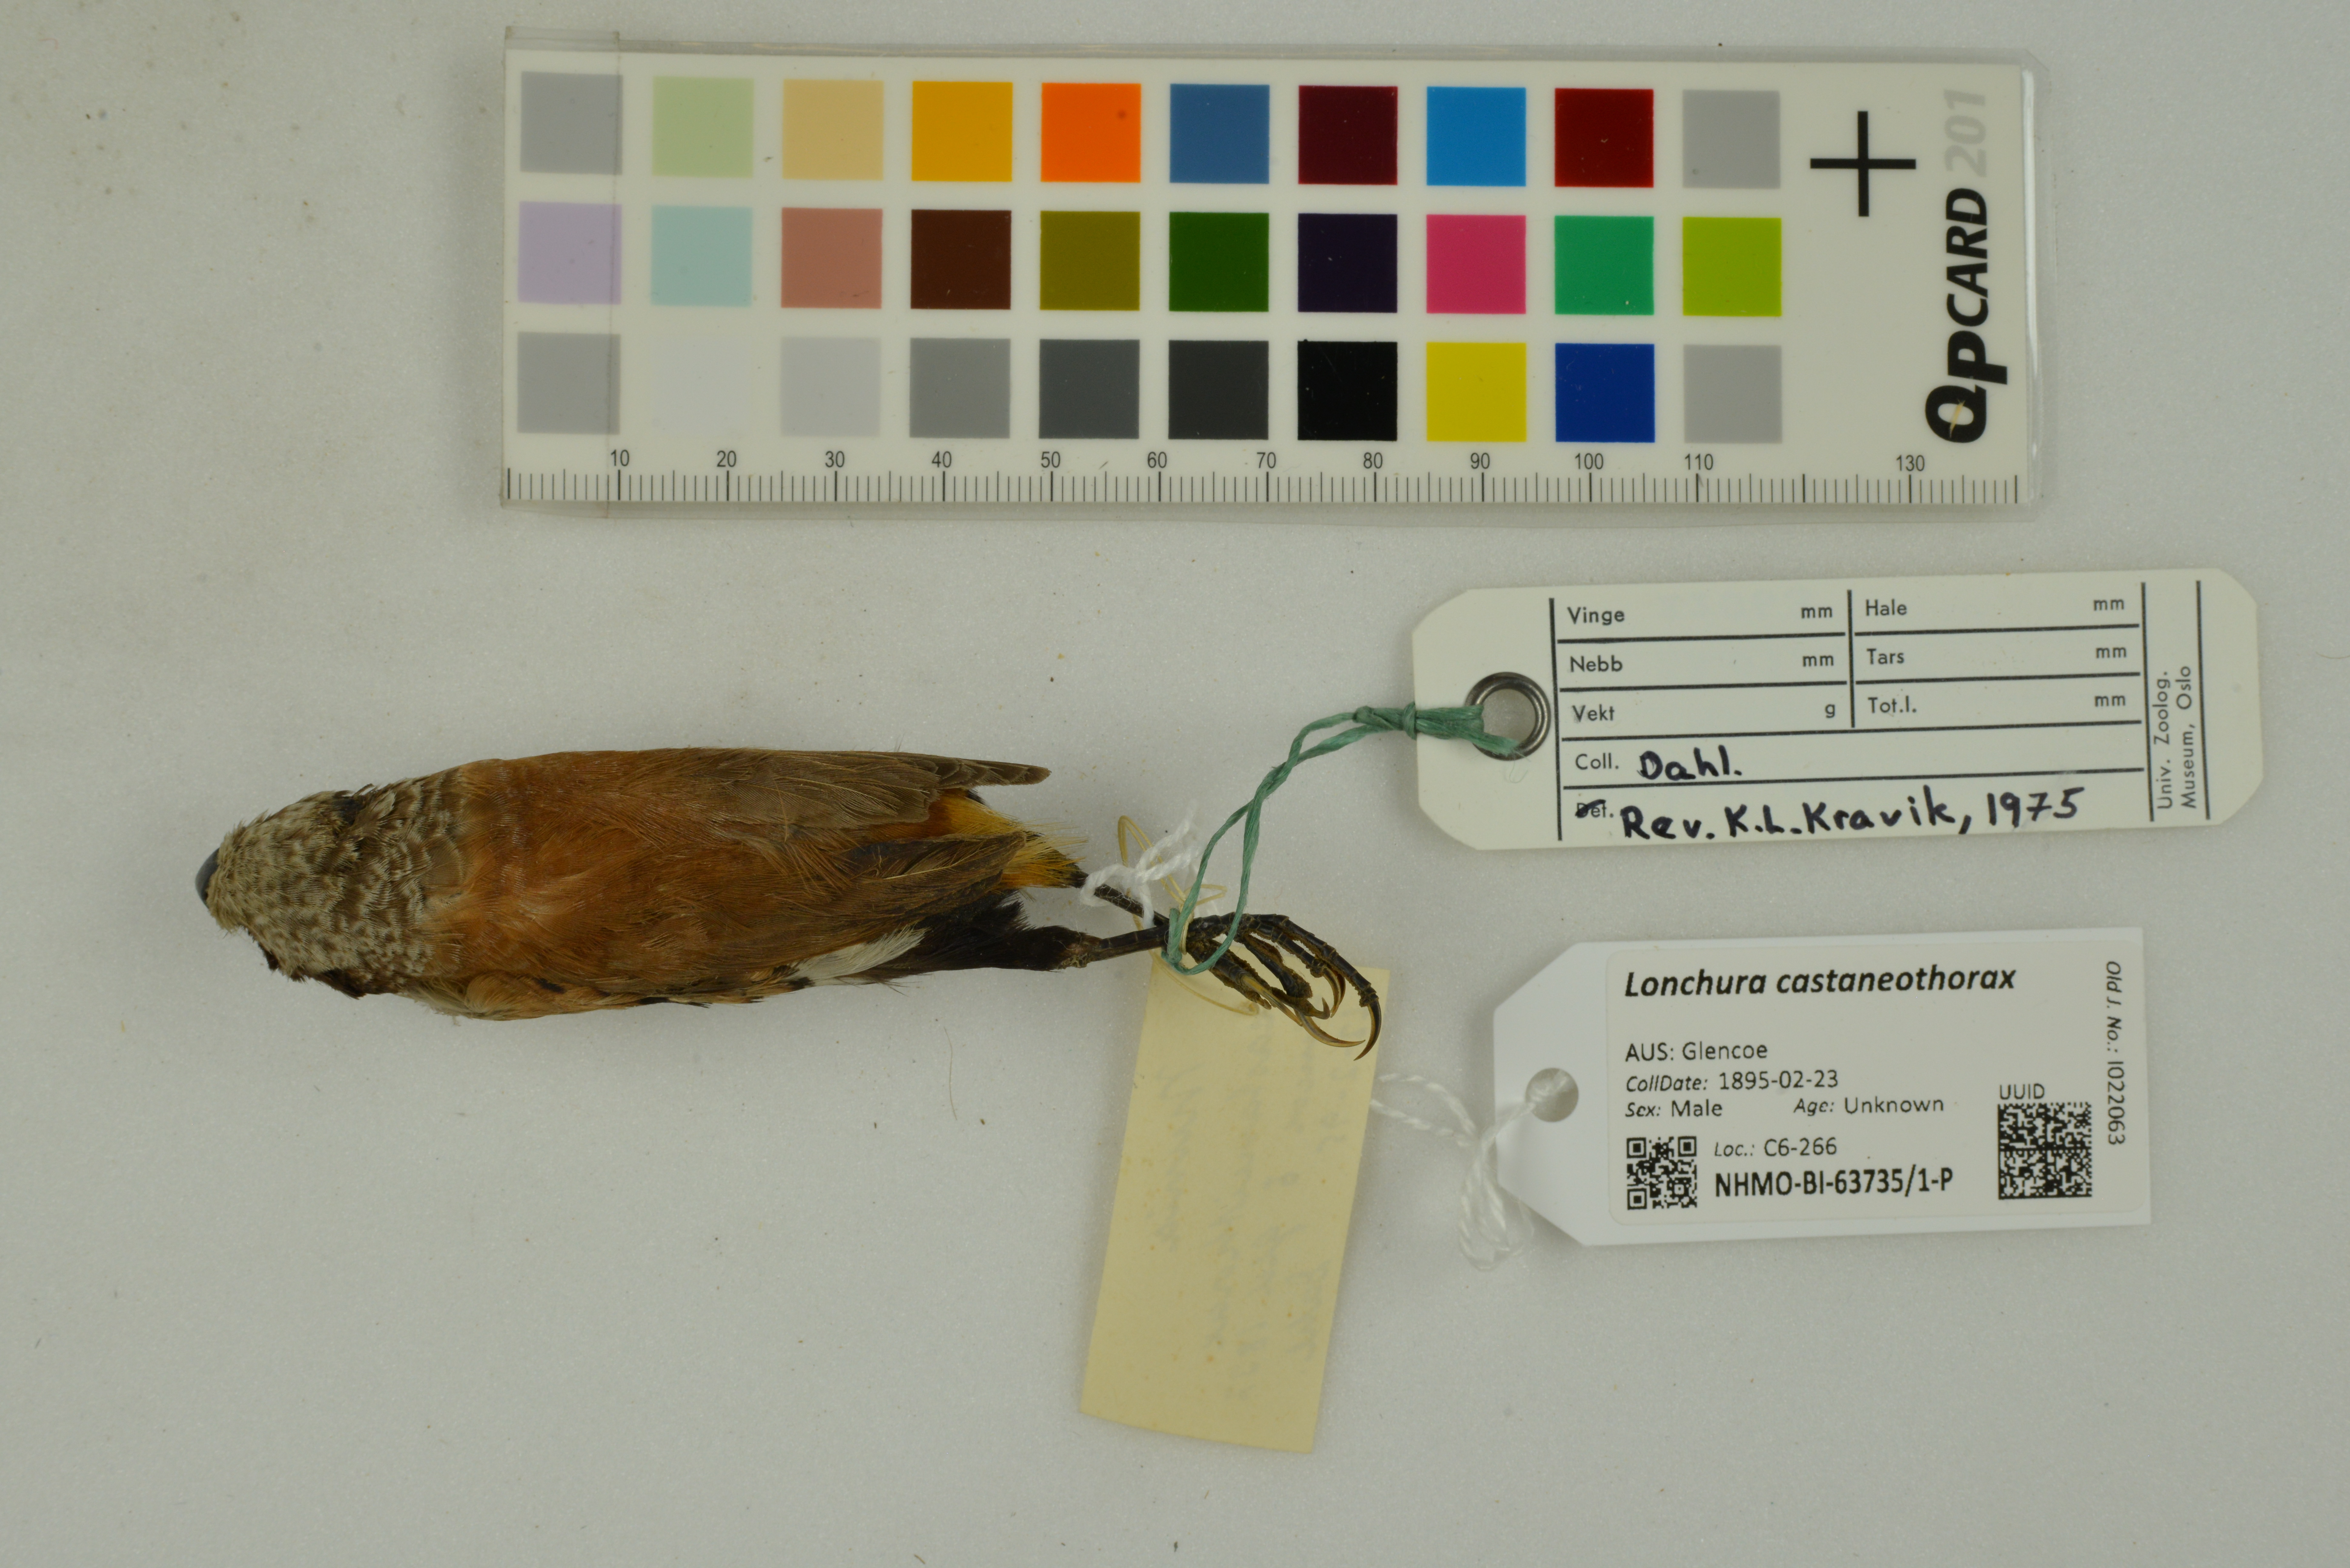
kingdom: Animalia
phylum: Chordata
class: Aves
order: Passeriformes
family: Estrildidae
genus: Lonchura
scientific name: Lonchura castaneothorax
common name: Chestnut-breasted mannikin
